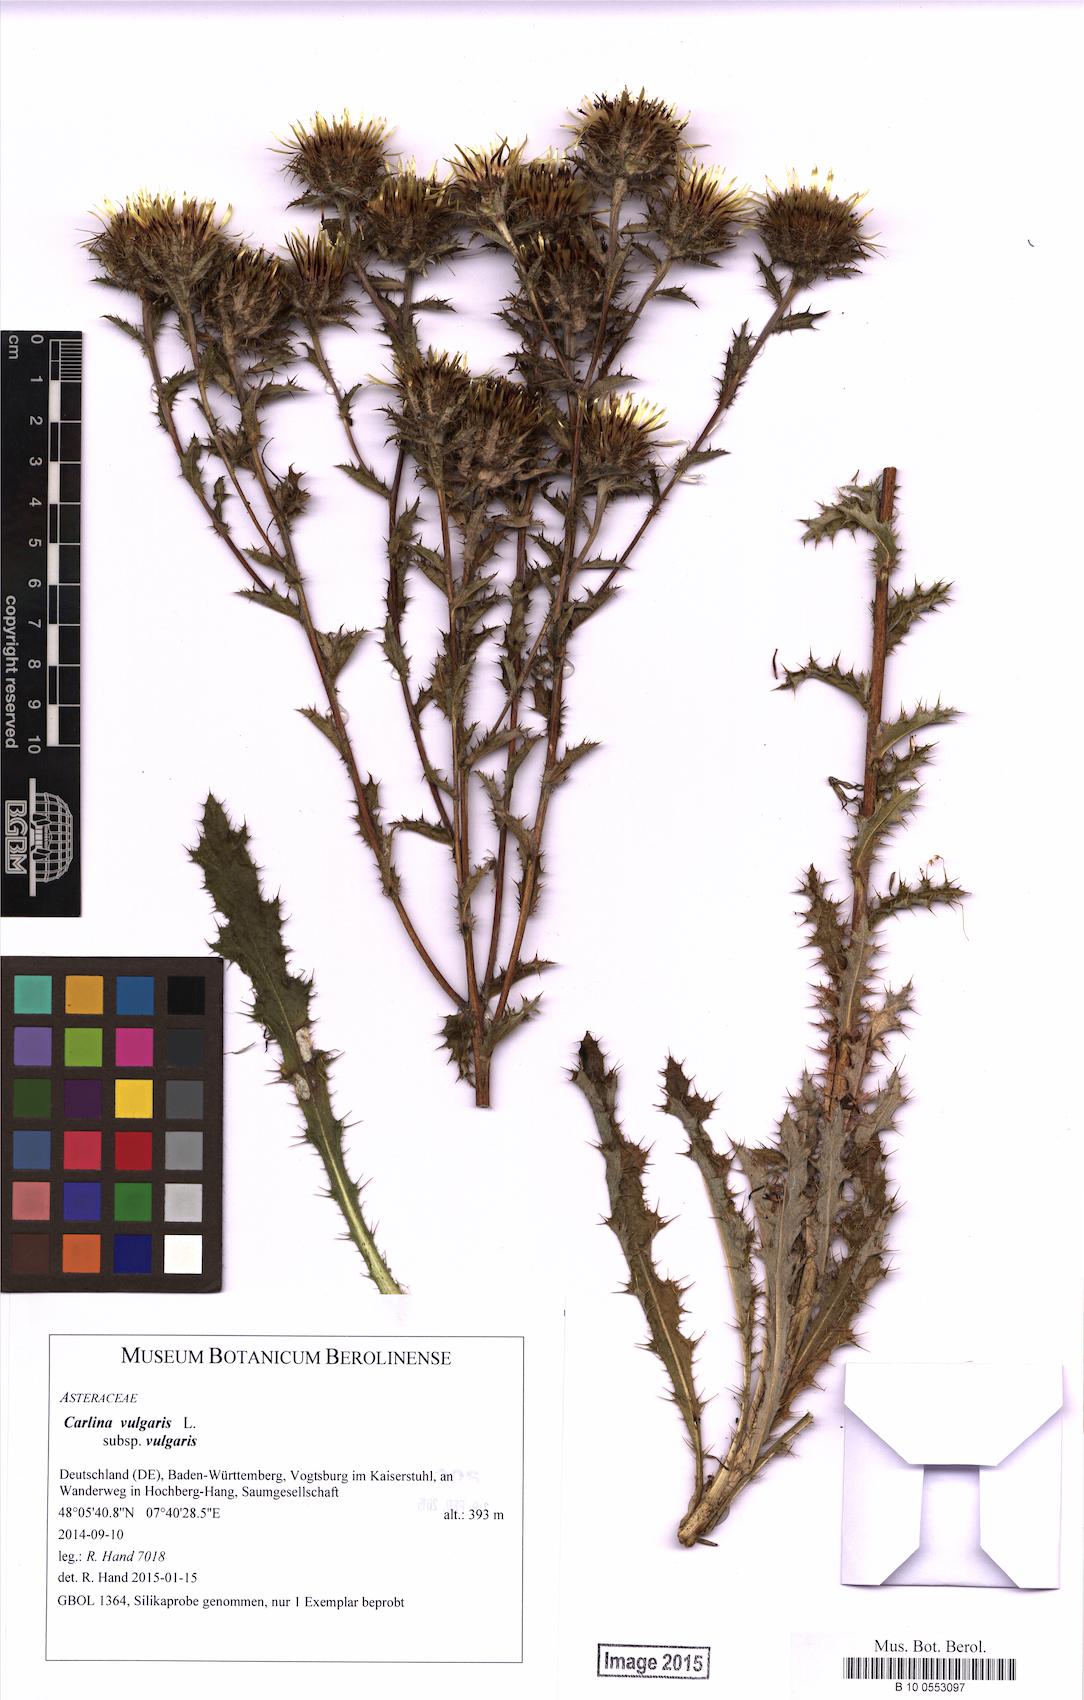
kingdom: Plantae
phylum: Tracheophyta
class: Magnoliopsida
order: Asterales
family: Asteraceae
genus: Carlina
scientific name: Carlina vulgaris
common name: Carline thistle
